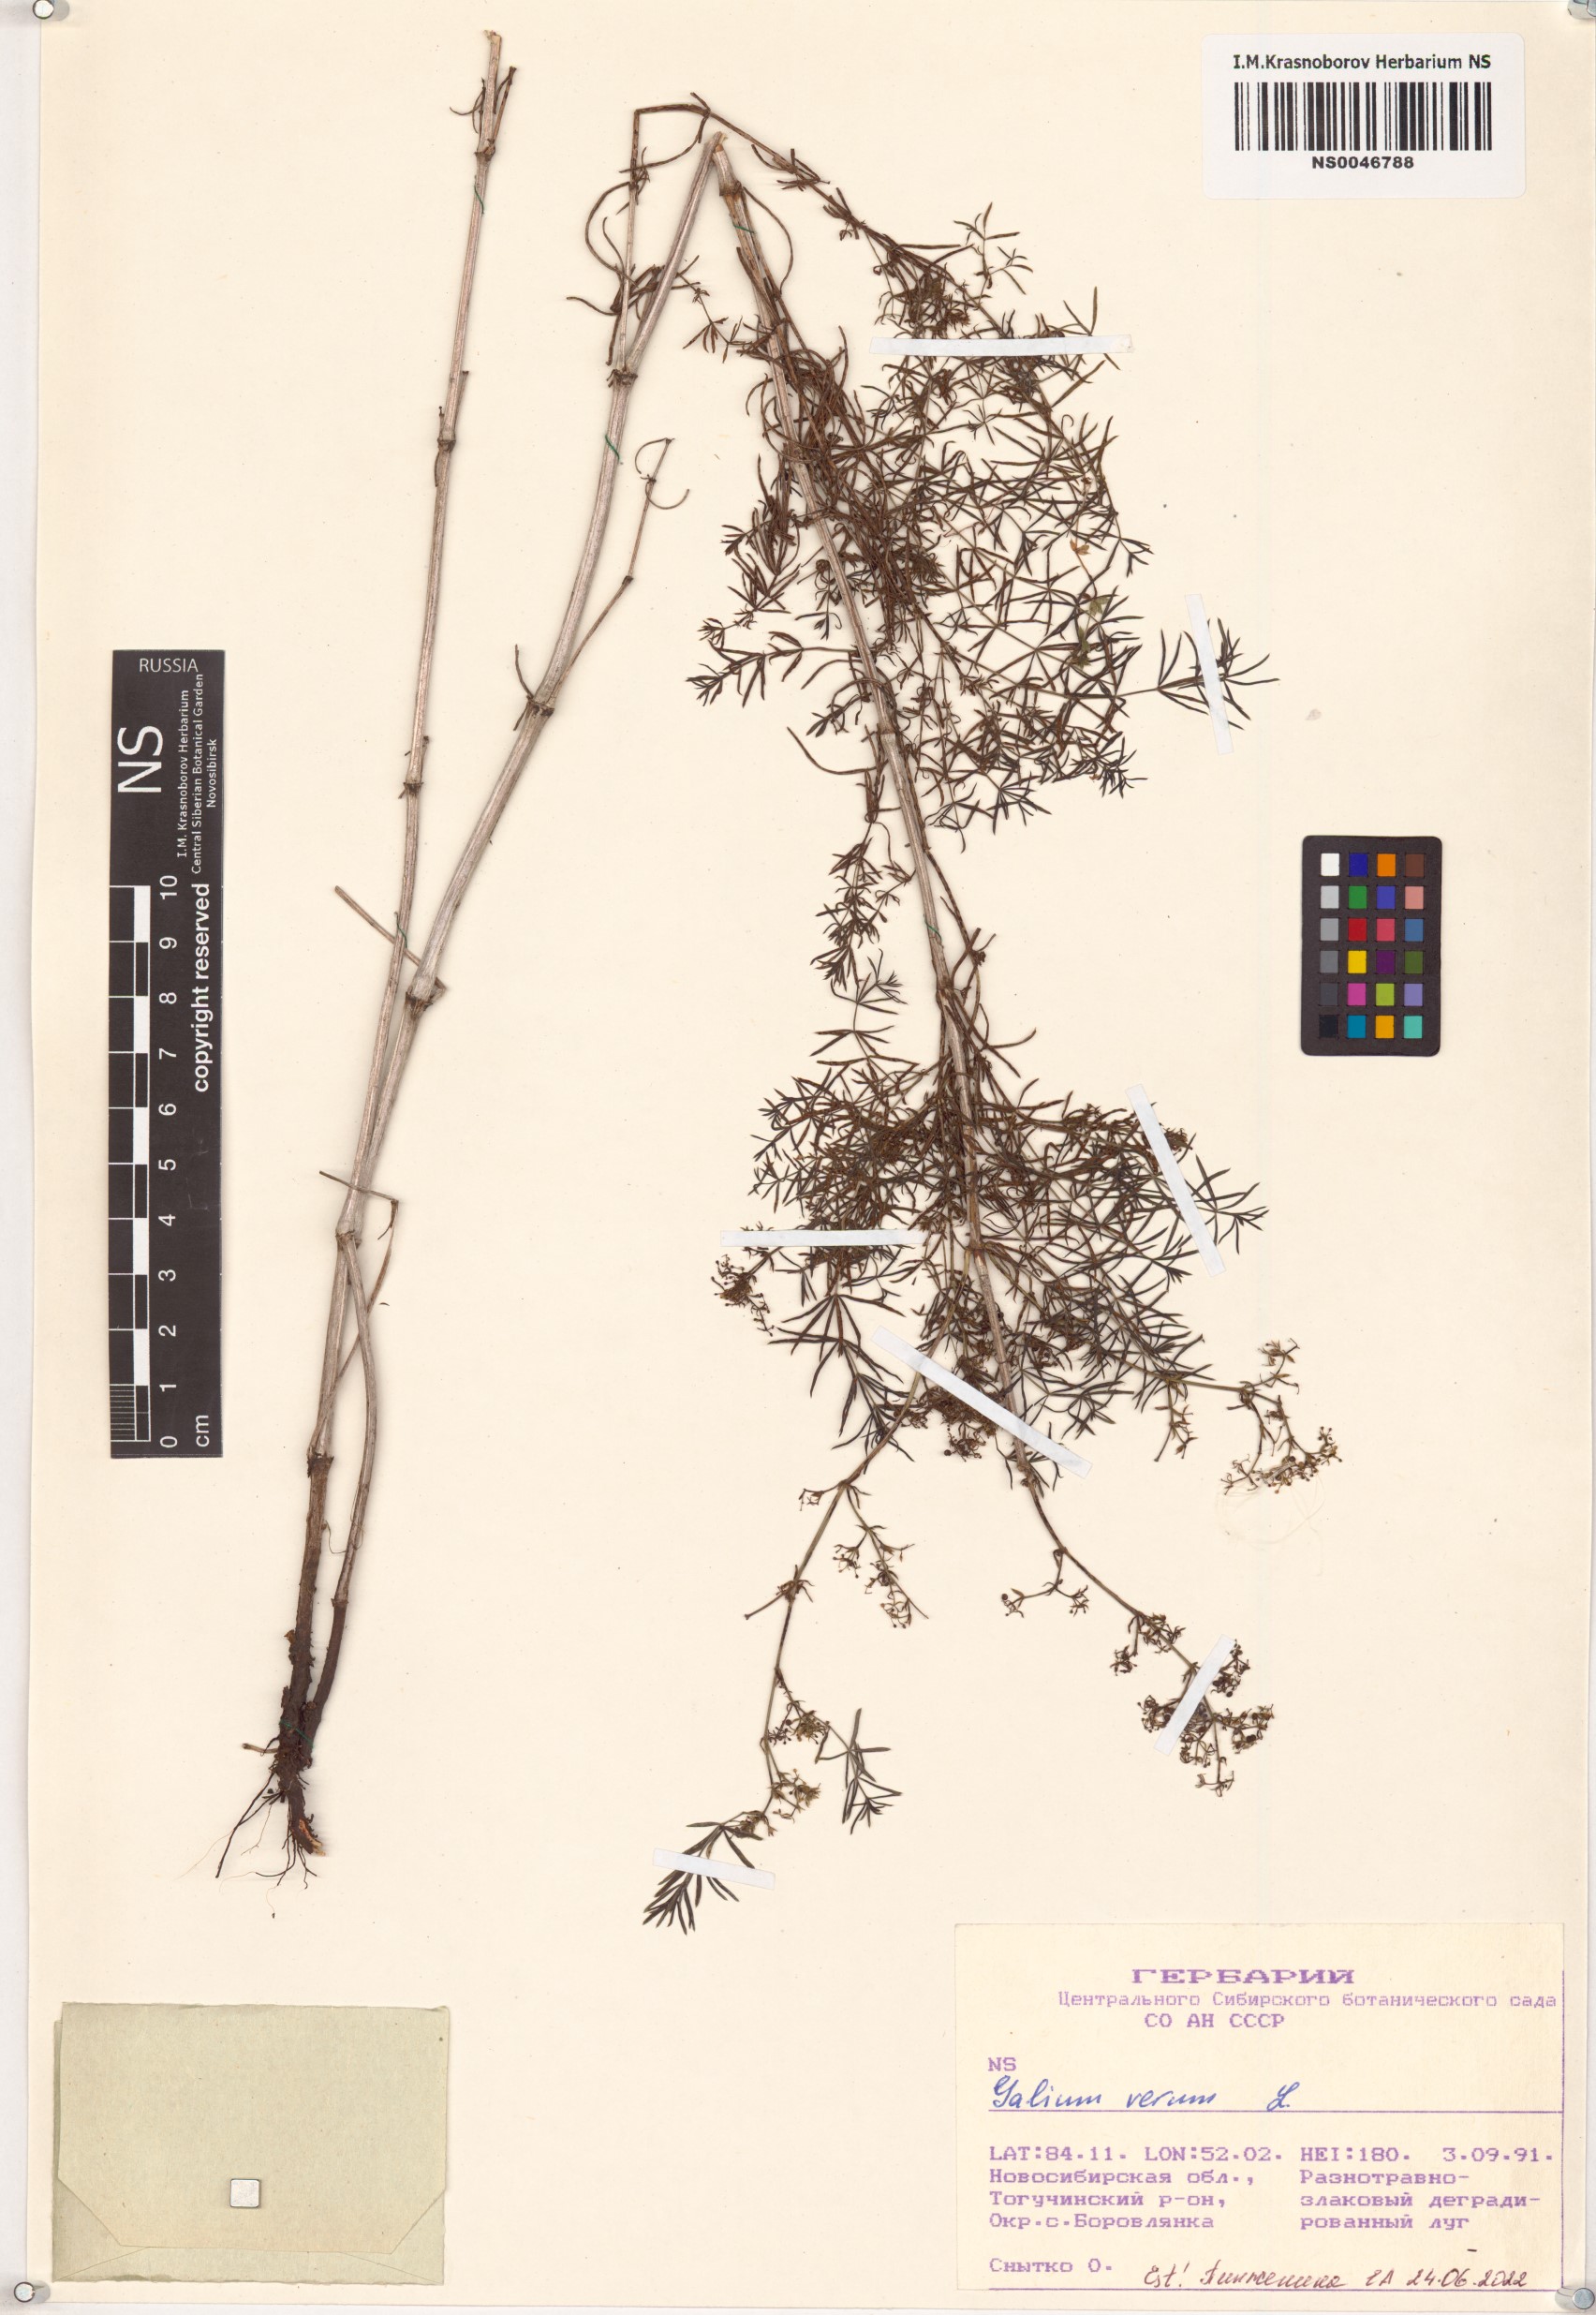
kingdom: Plantae
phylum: Tracheophyta
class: Magnoliopsida
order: Gentianales
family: Rubiaceae
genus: Galium
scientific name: Galium verum
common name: Lady's bedstraw
